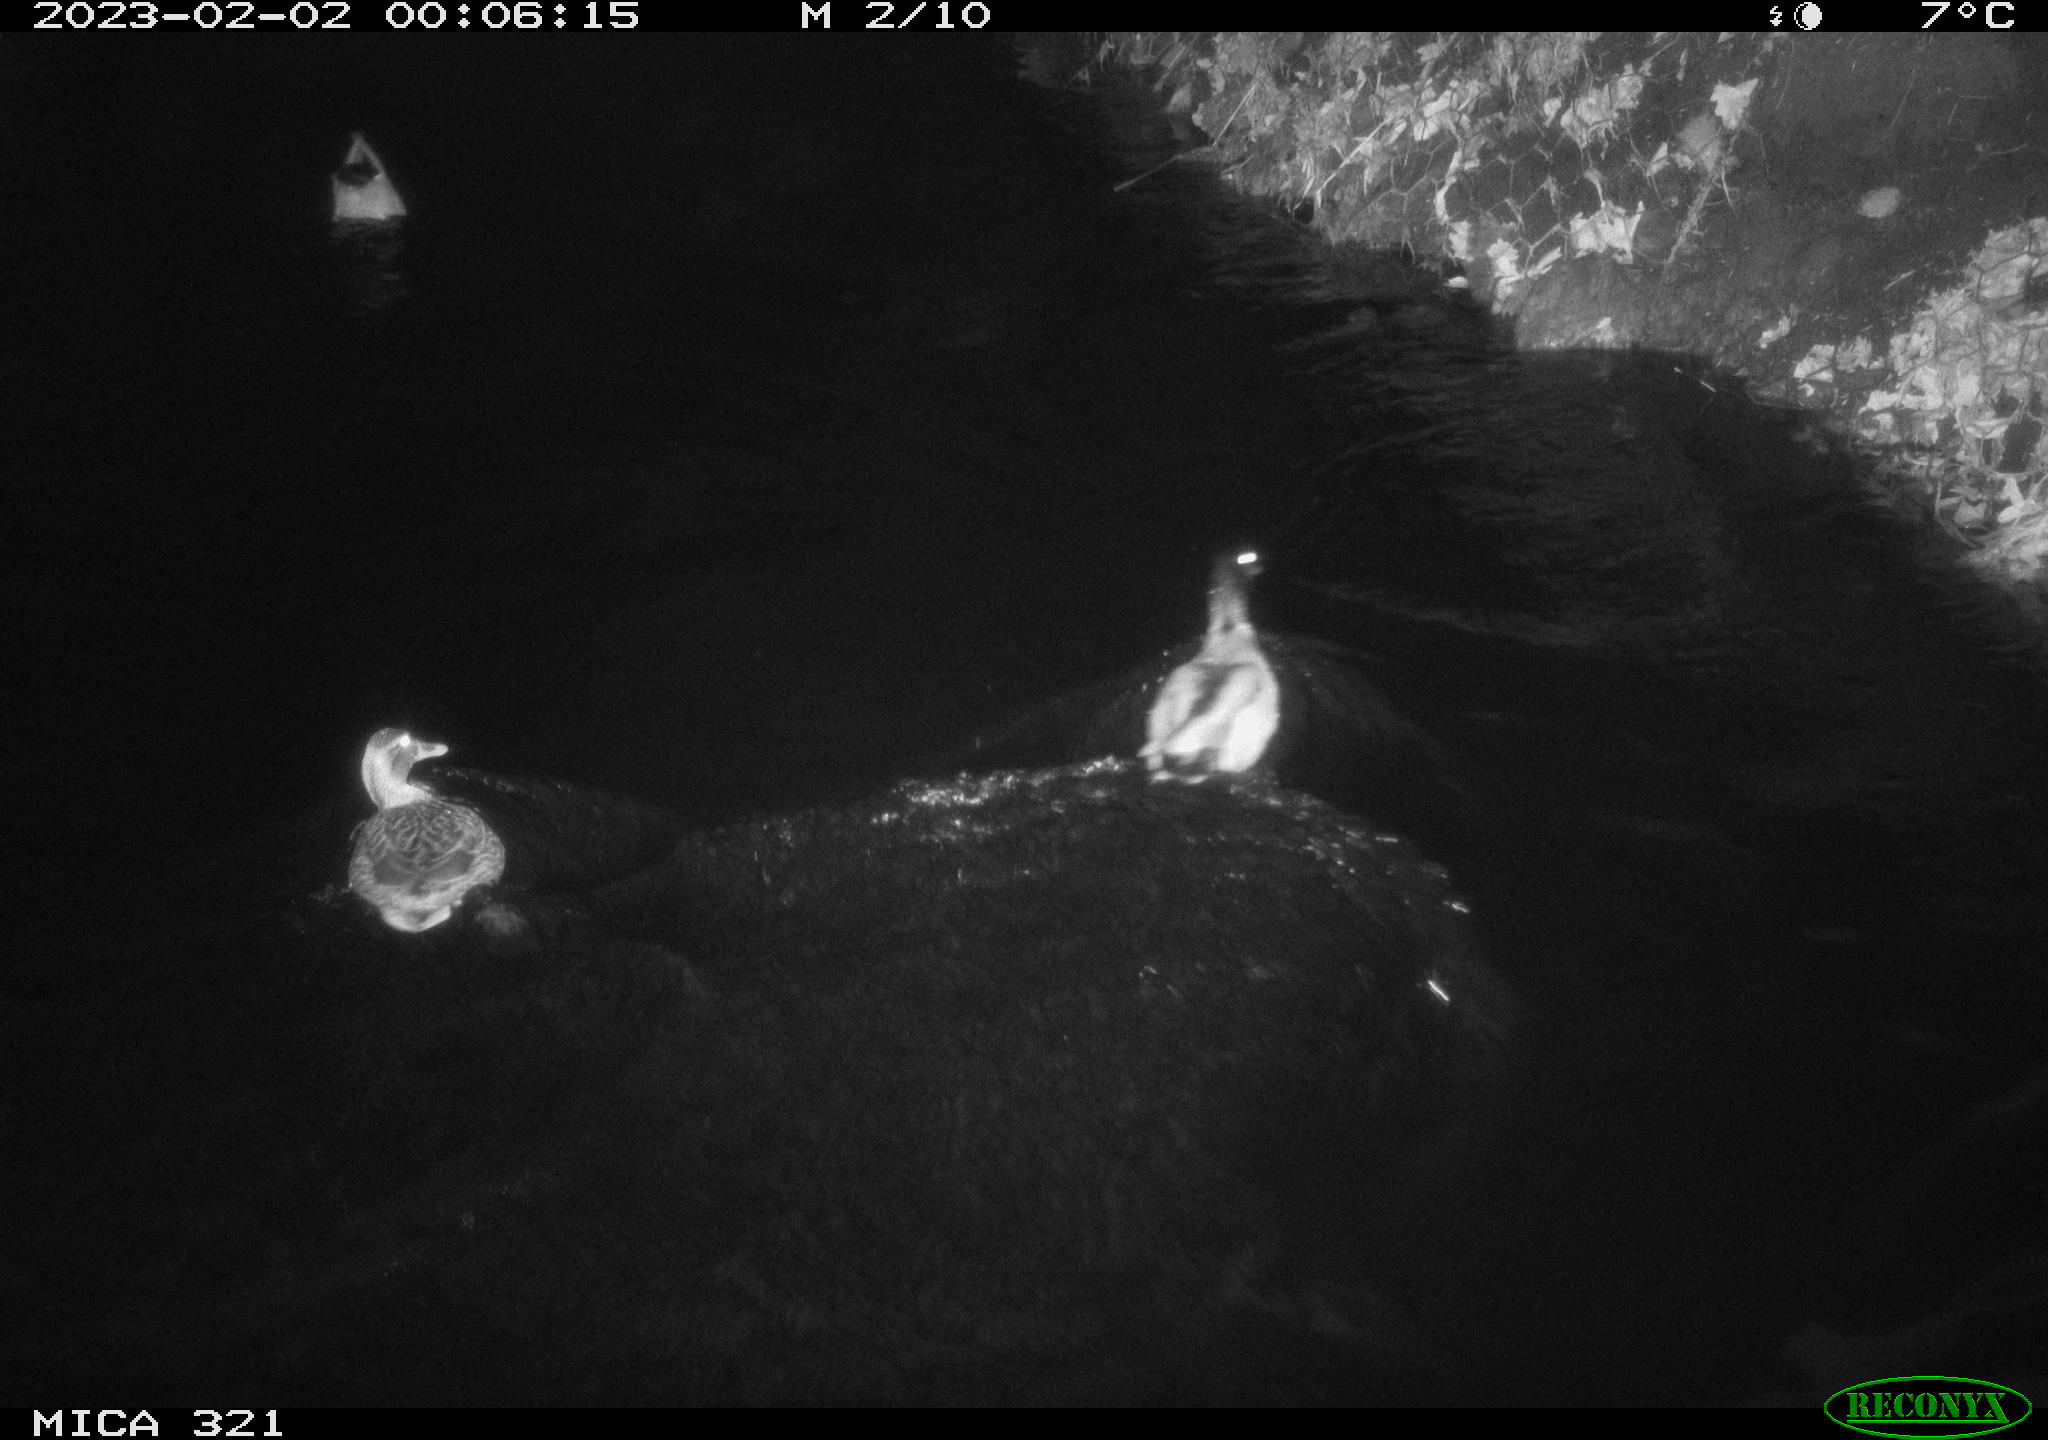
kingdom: Animalia
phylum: Chordata
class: Aves
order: Anseriformes
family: Anatidae
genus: Anas
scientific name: Anas
